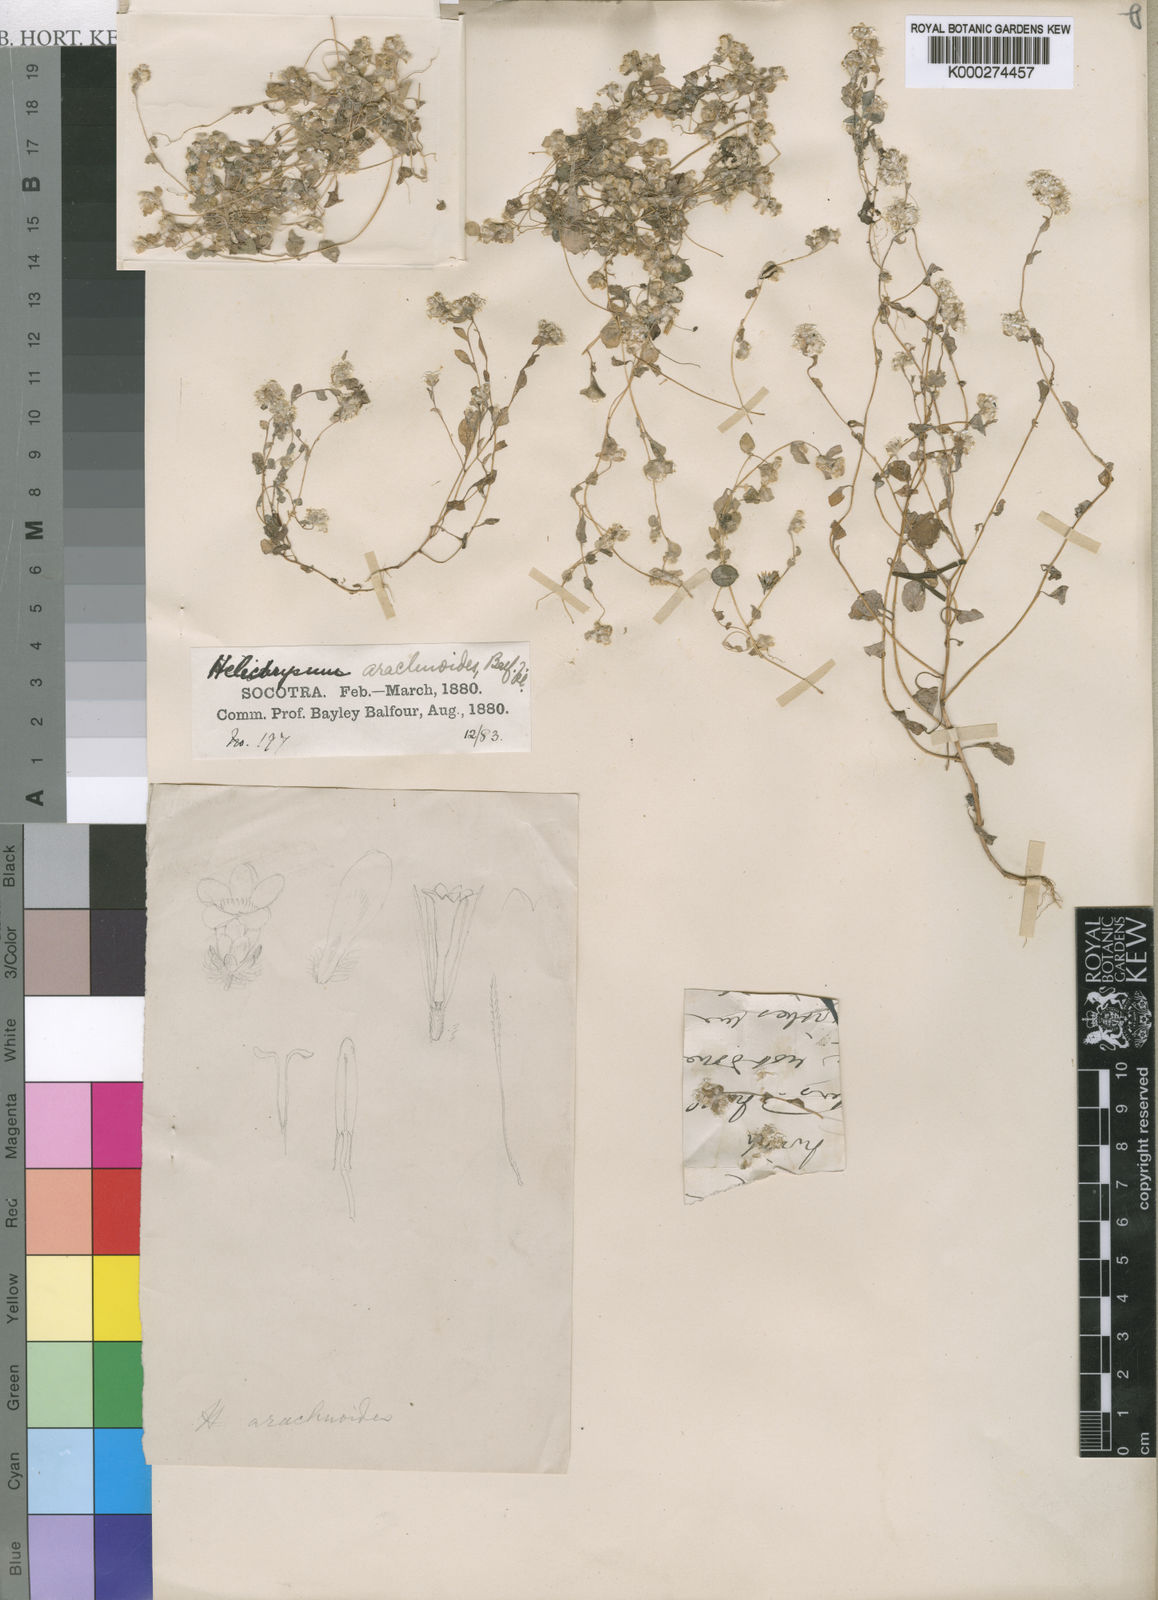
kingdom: Plantae
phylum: Tracheophyta
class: Magnoliopsida
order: Asterales
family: Asteraceae
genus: Libinhania
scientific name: Libinhania arachnoides
